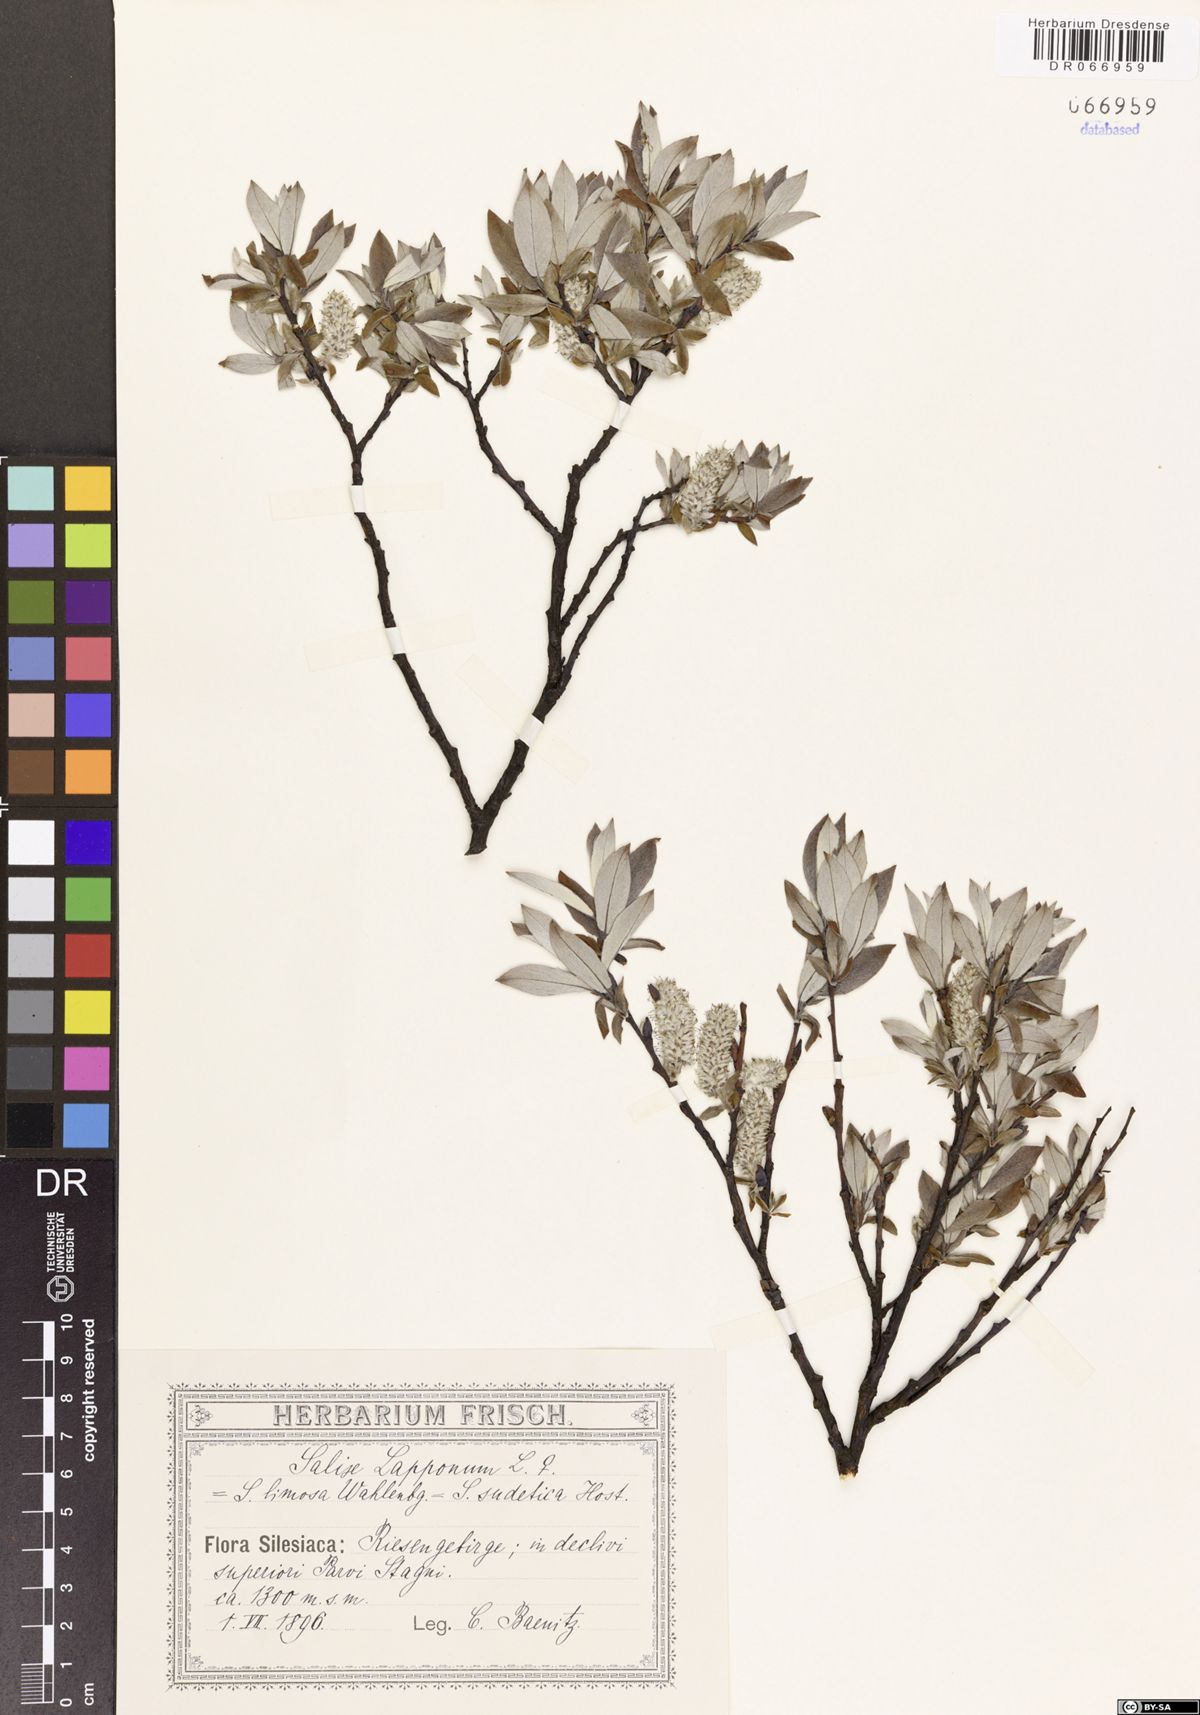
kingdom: Plantae
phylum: Tracheophyta
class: Magnoliopsida
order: Malpighiales
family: Salicaceae
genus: Salix
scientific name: Salix lapponum
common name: Downy willow
